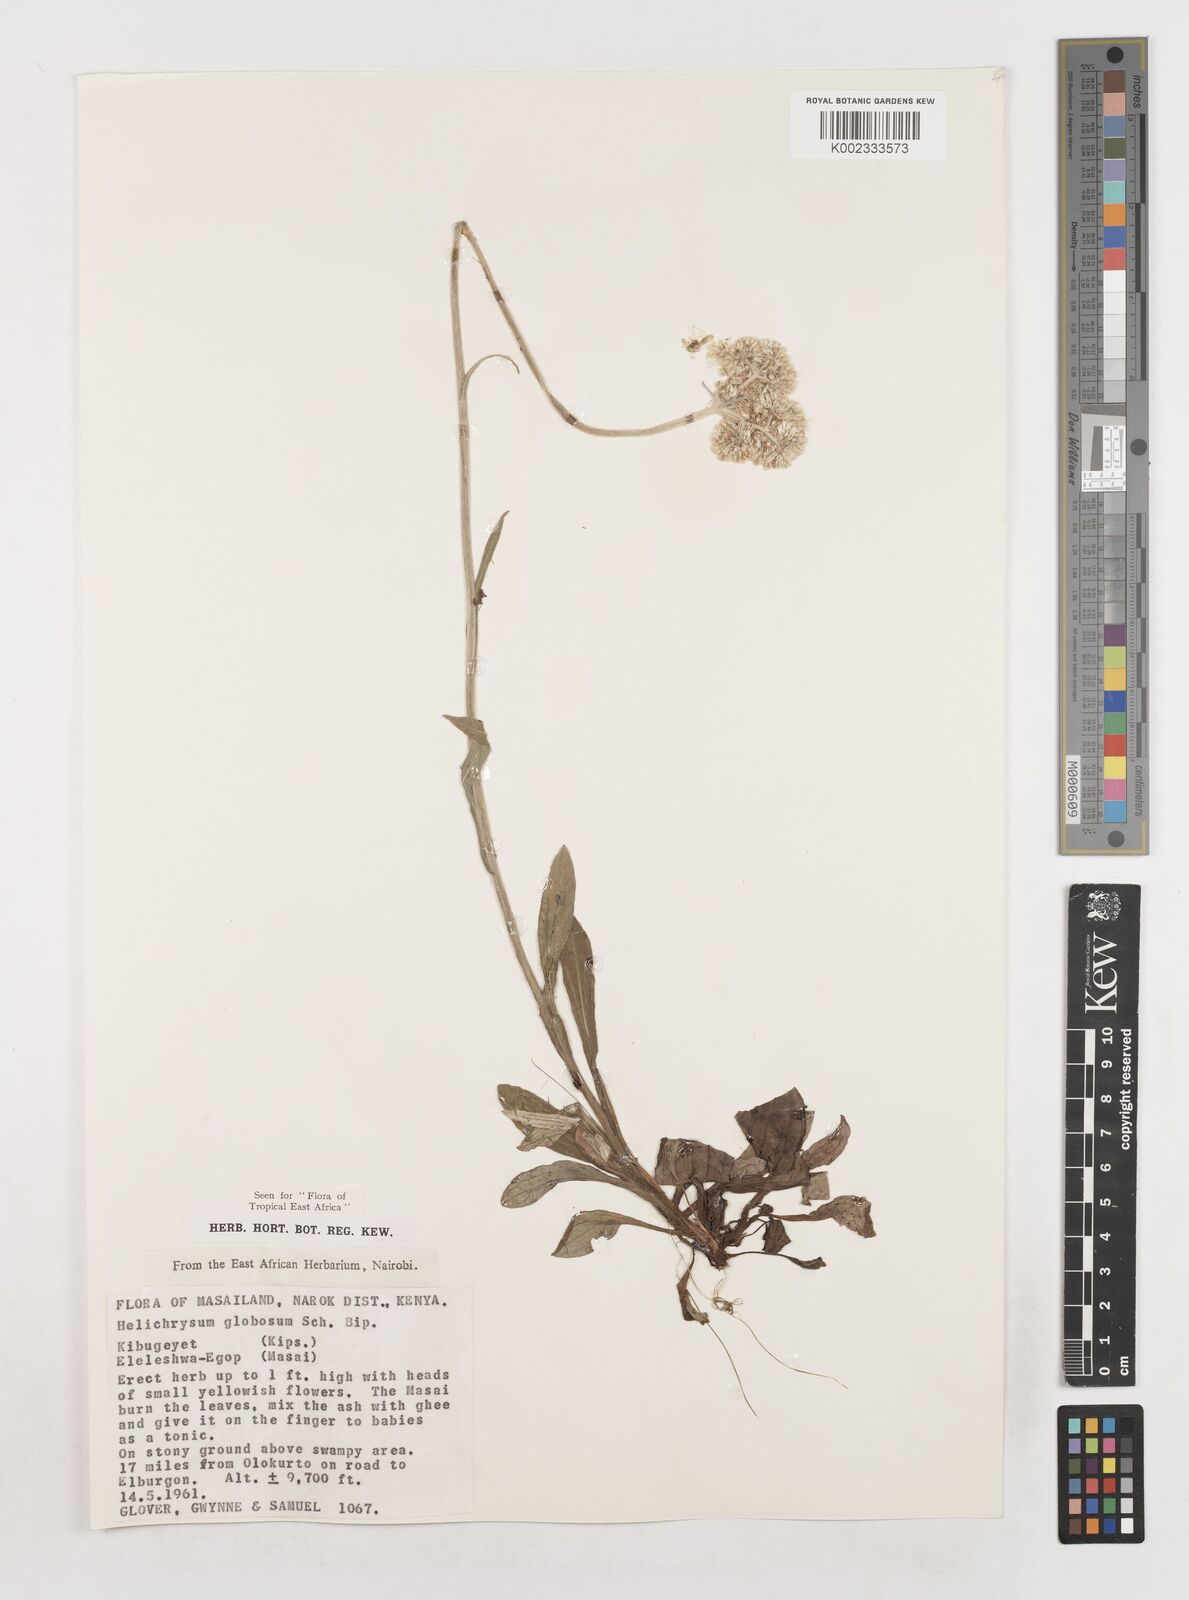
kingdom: Plantae
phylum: Tracheophyta
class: Magnoliopsida
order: Asterales
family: Asteraceae
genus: Helichrysum
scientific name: Helichrysum globosum
